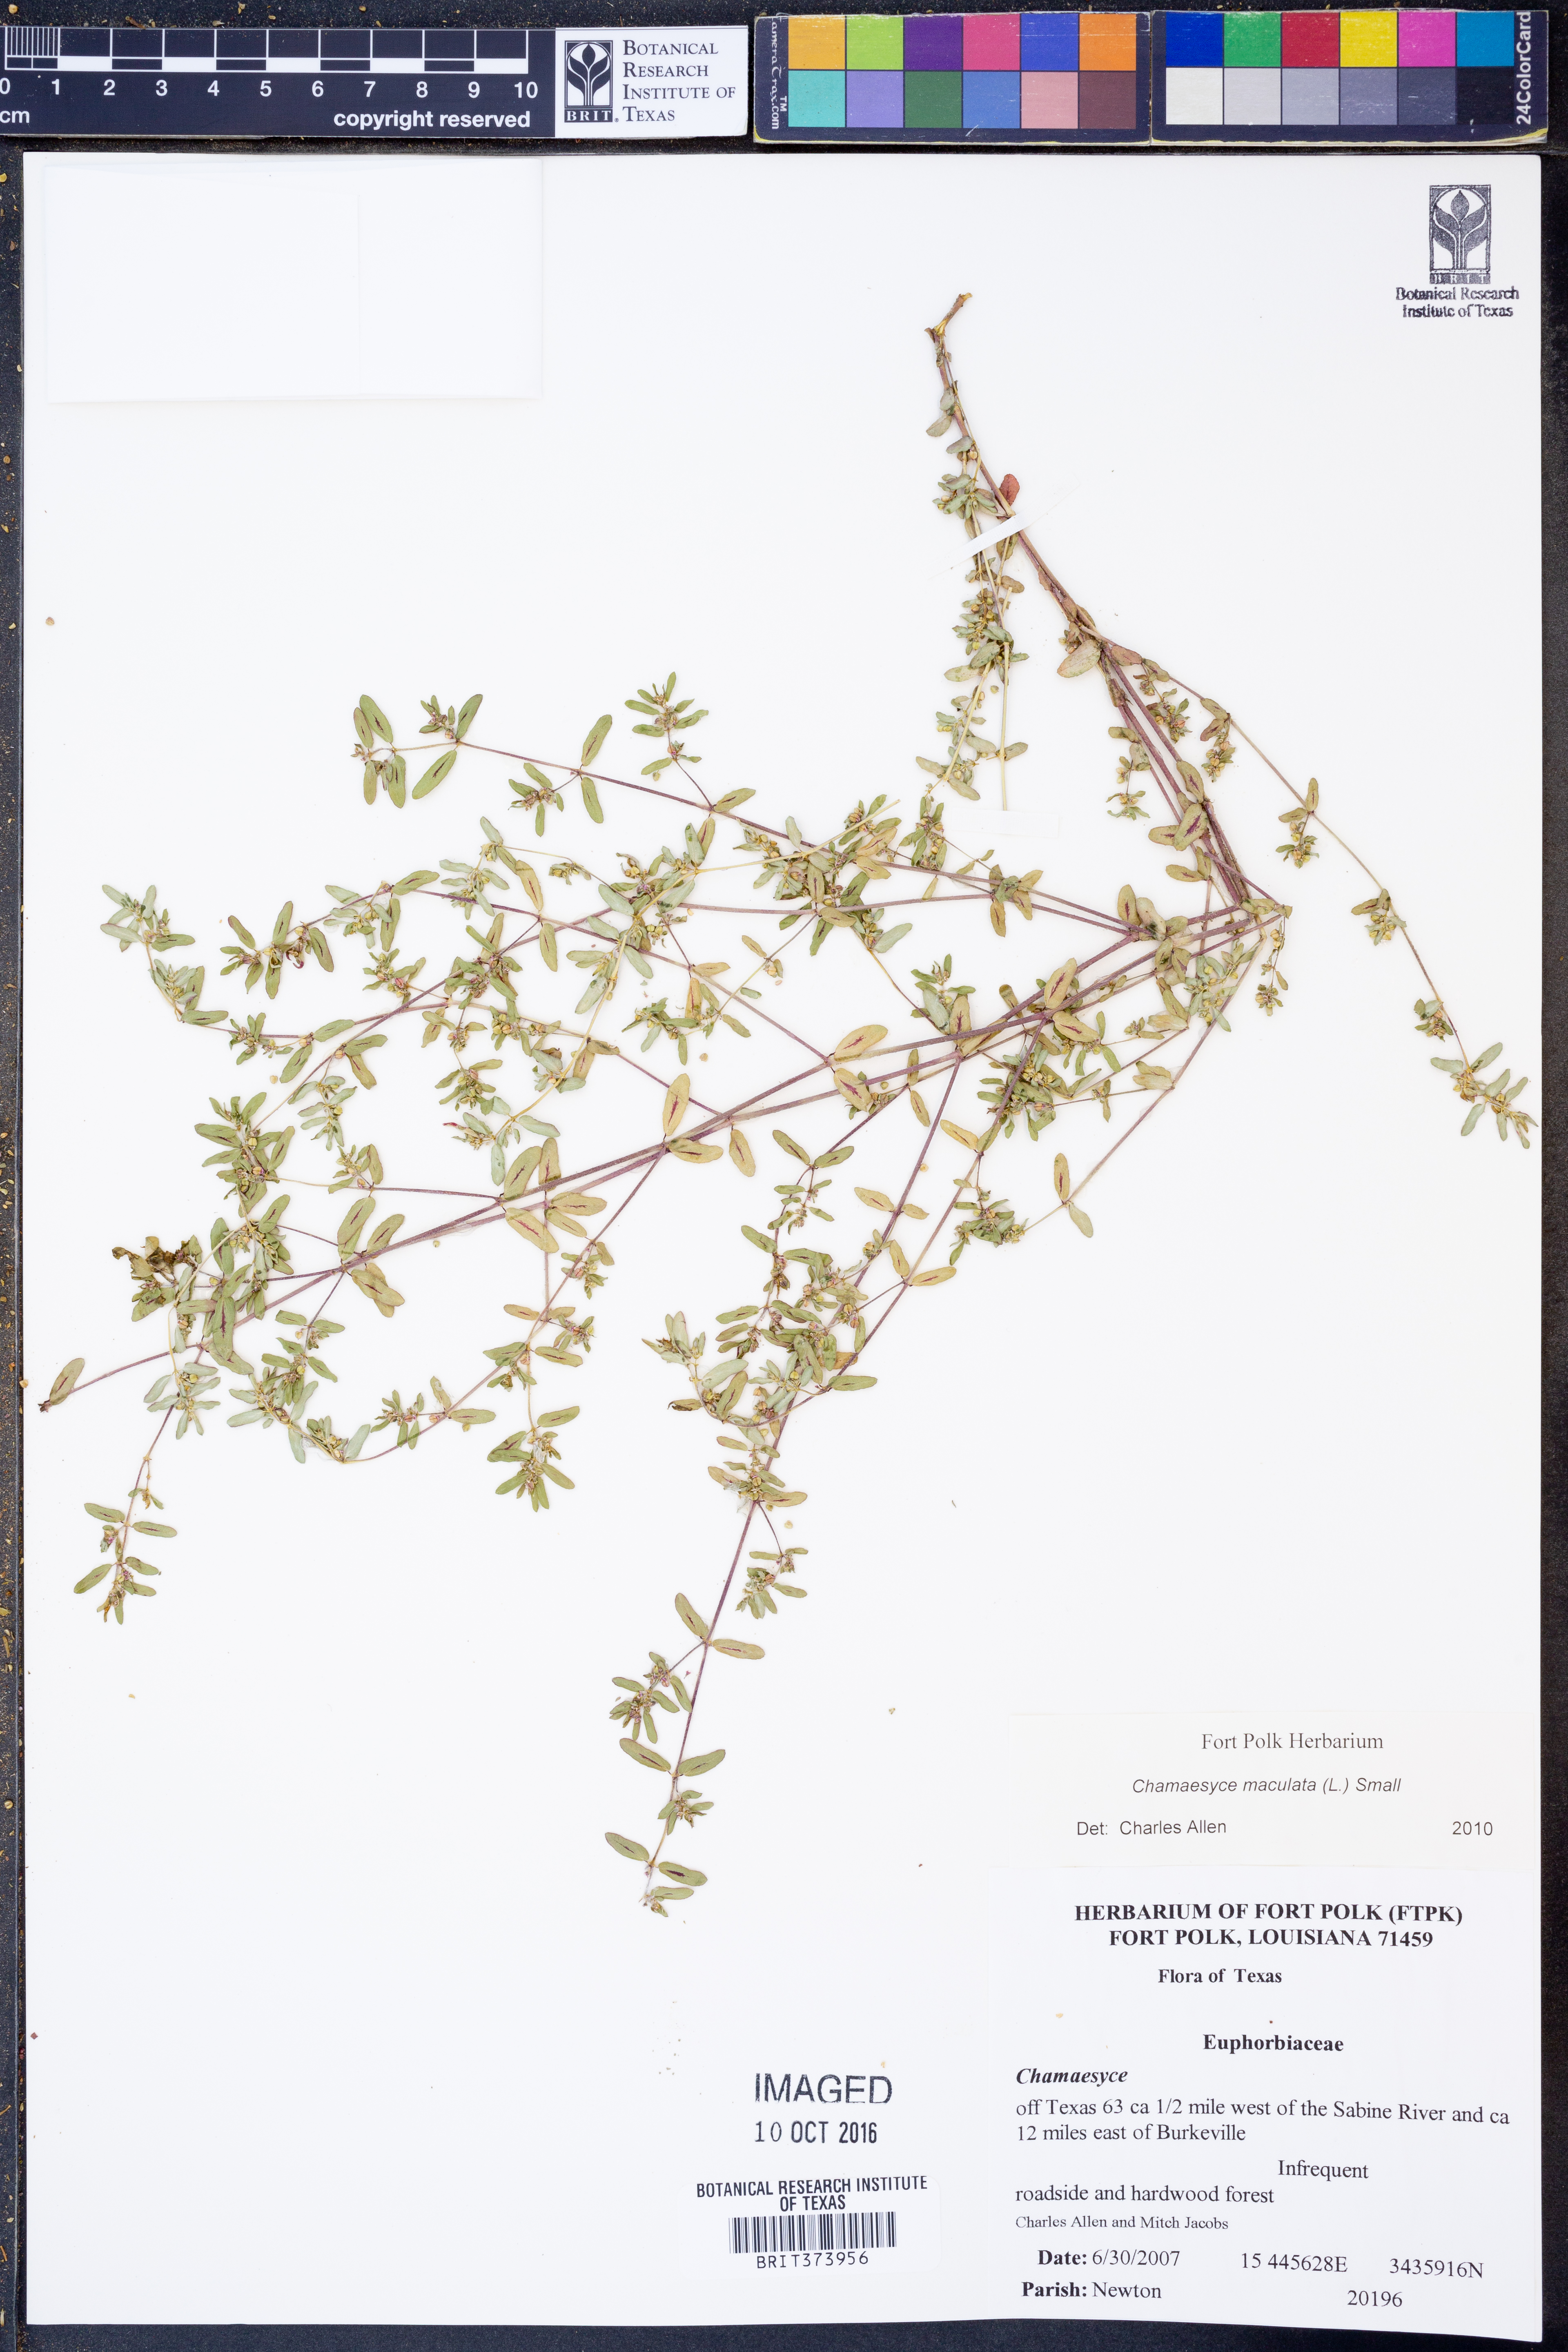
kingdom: Plantae
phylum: Tracheophyta
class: Magnoliopsida
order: Malpighiales
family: Euphorbiaceae
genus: Euphorbia
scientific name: Euphorbia maculata
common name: Spotted spurge
